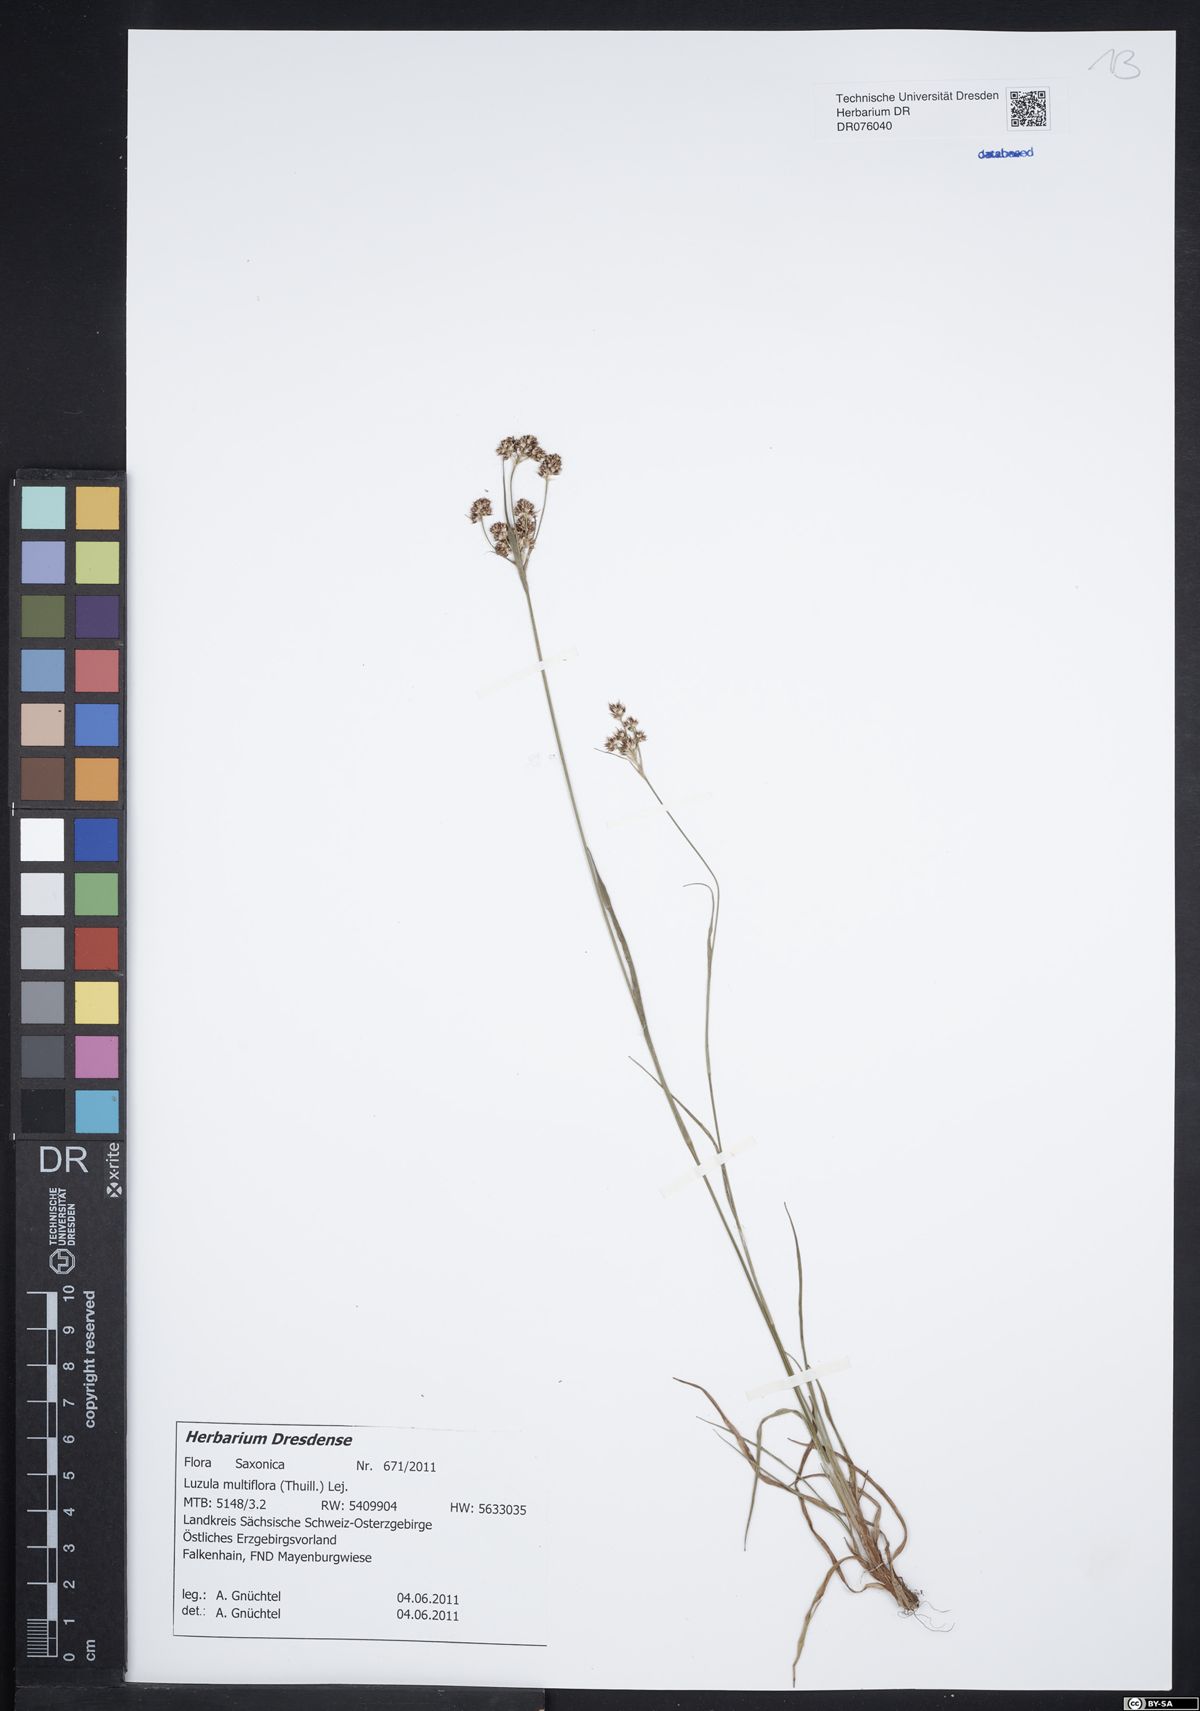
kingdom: Plantae
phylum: Tracheophyta
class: Liliopsida
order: Poales
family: Juncaceae
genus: Luzula
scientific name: Luzula multiflora
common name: Heath wood-rush
